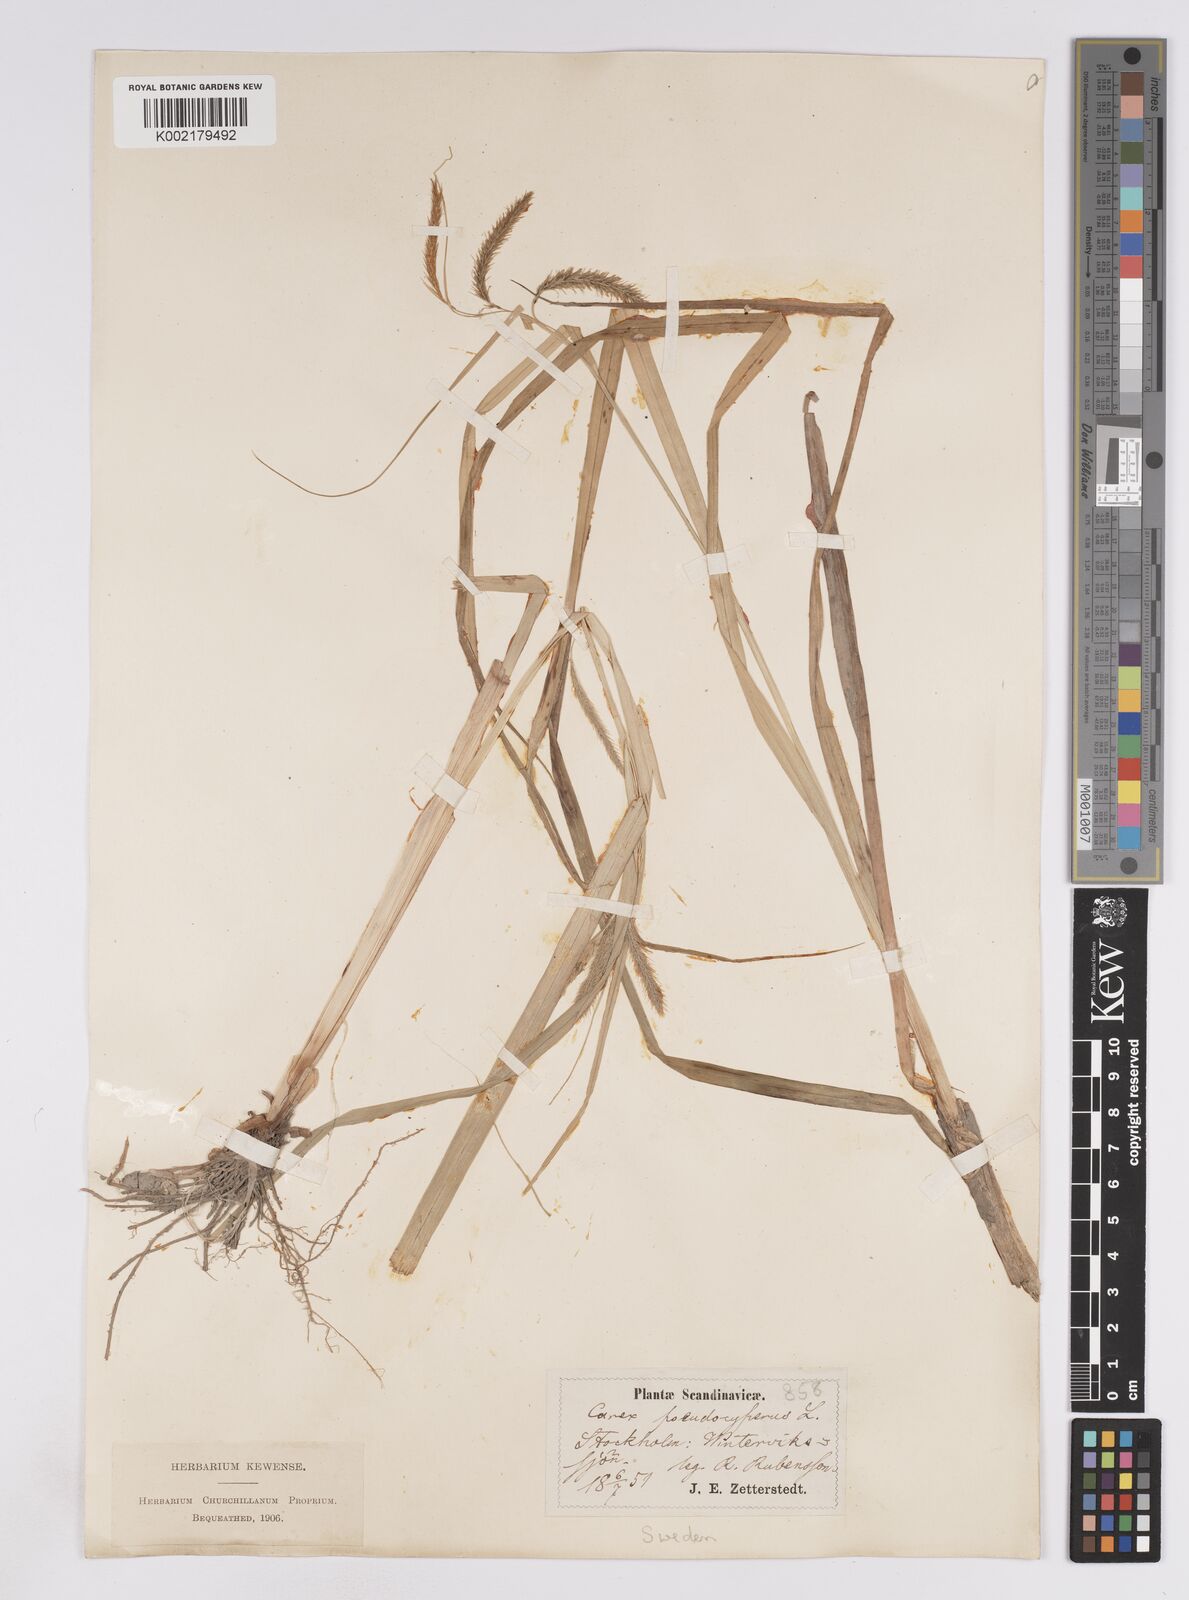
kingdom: Plantae
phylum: Tracheophyta
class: Liliopsida
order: Poales
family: Cyperaceae
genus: Carex
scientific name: Carex pseudocyperus
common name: Cyperus sedge
